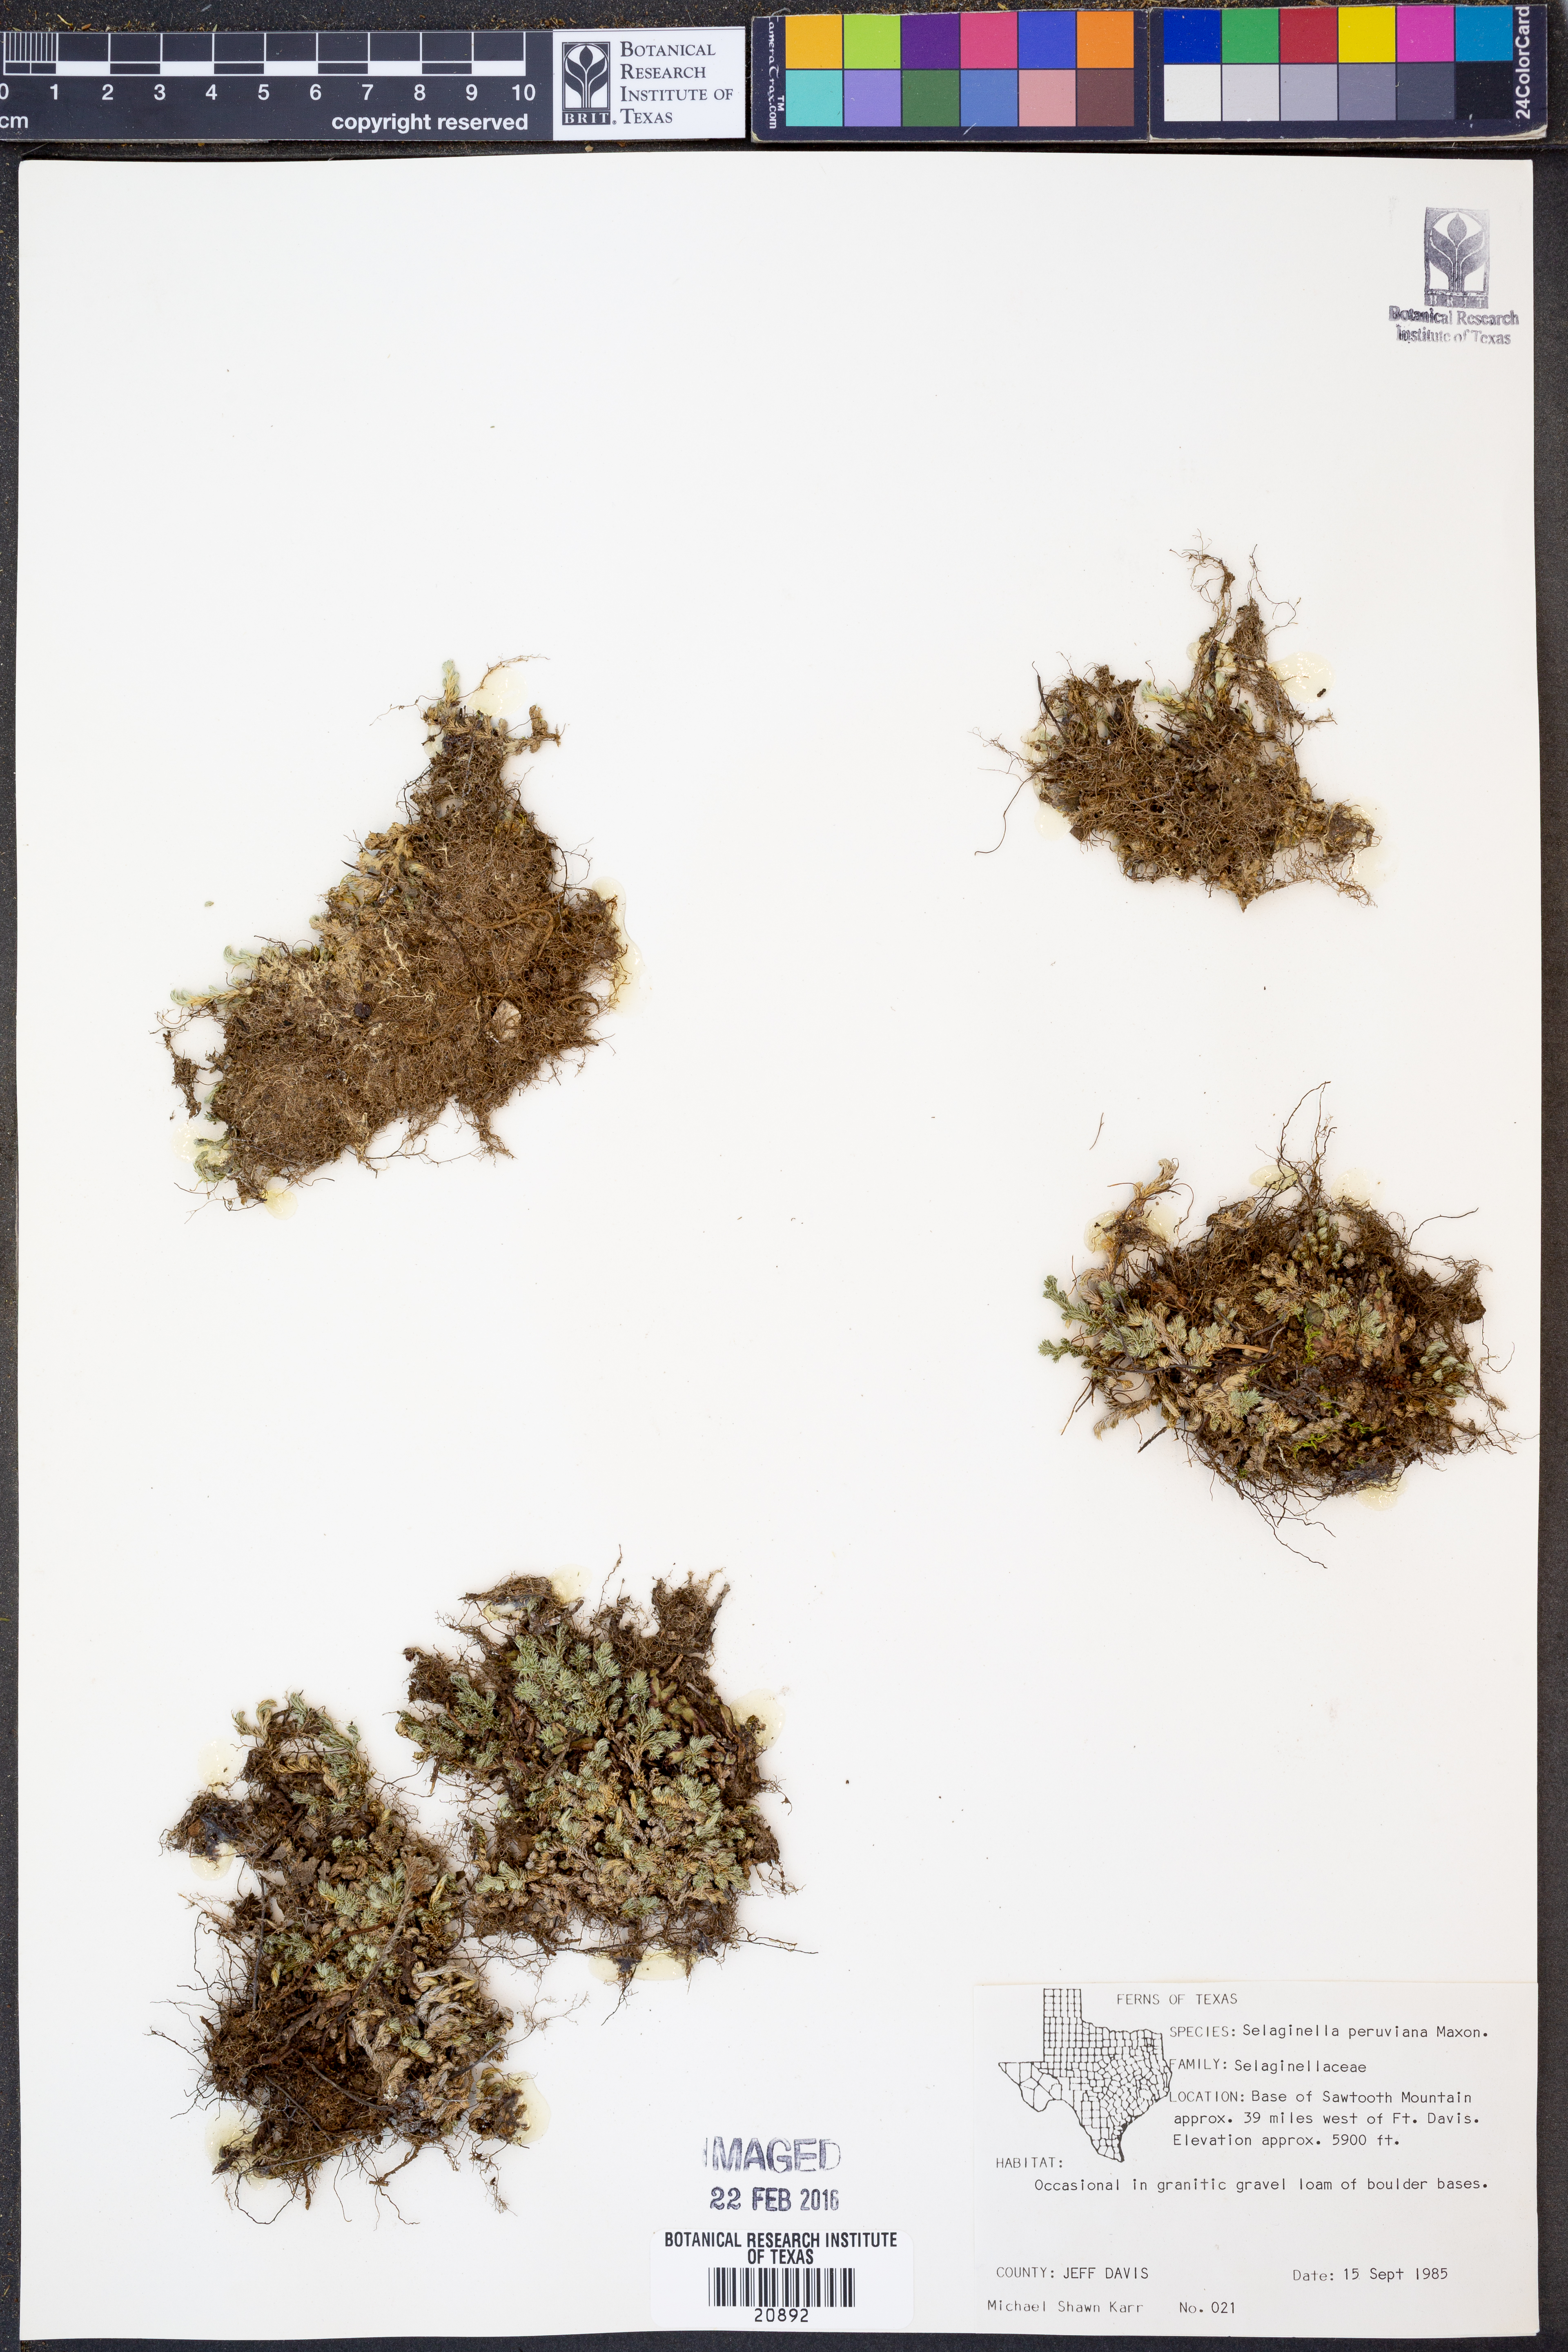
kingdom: Plantae
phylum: Tracheophyta
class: Lycopodiopsida
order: Selaginellales
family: Selaginellaceae
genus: Selaginella
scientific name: Selaginella peruviana
